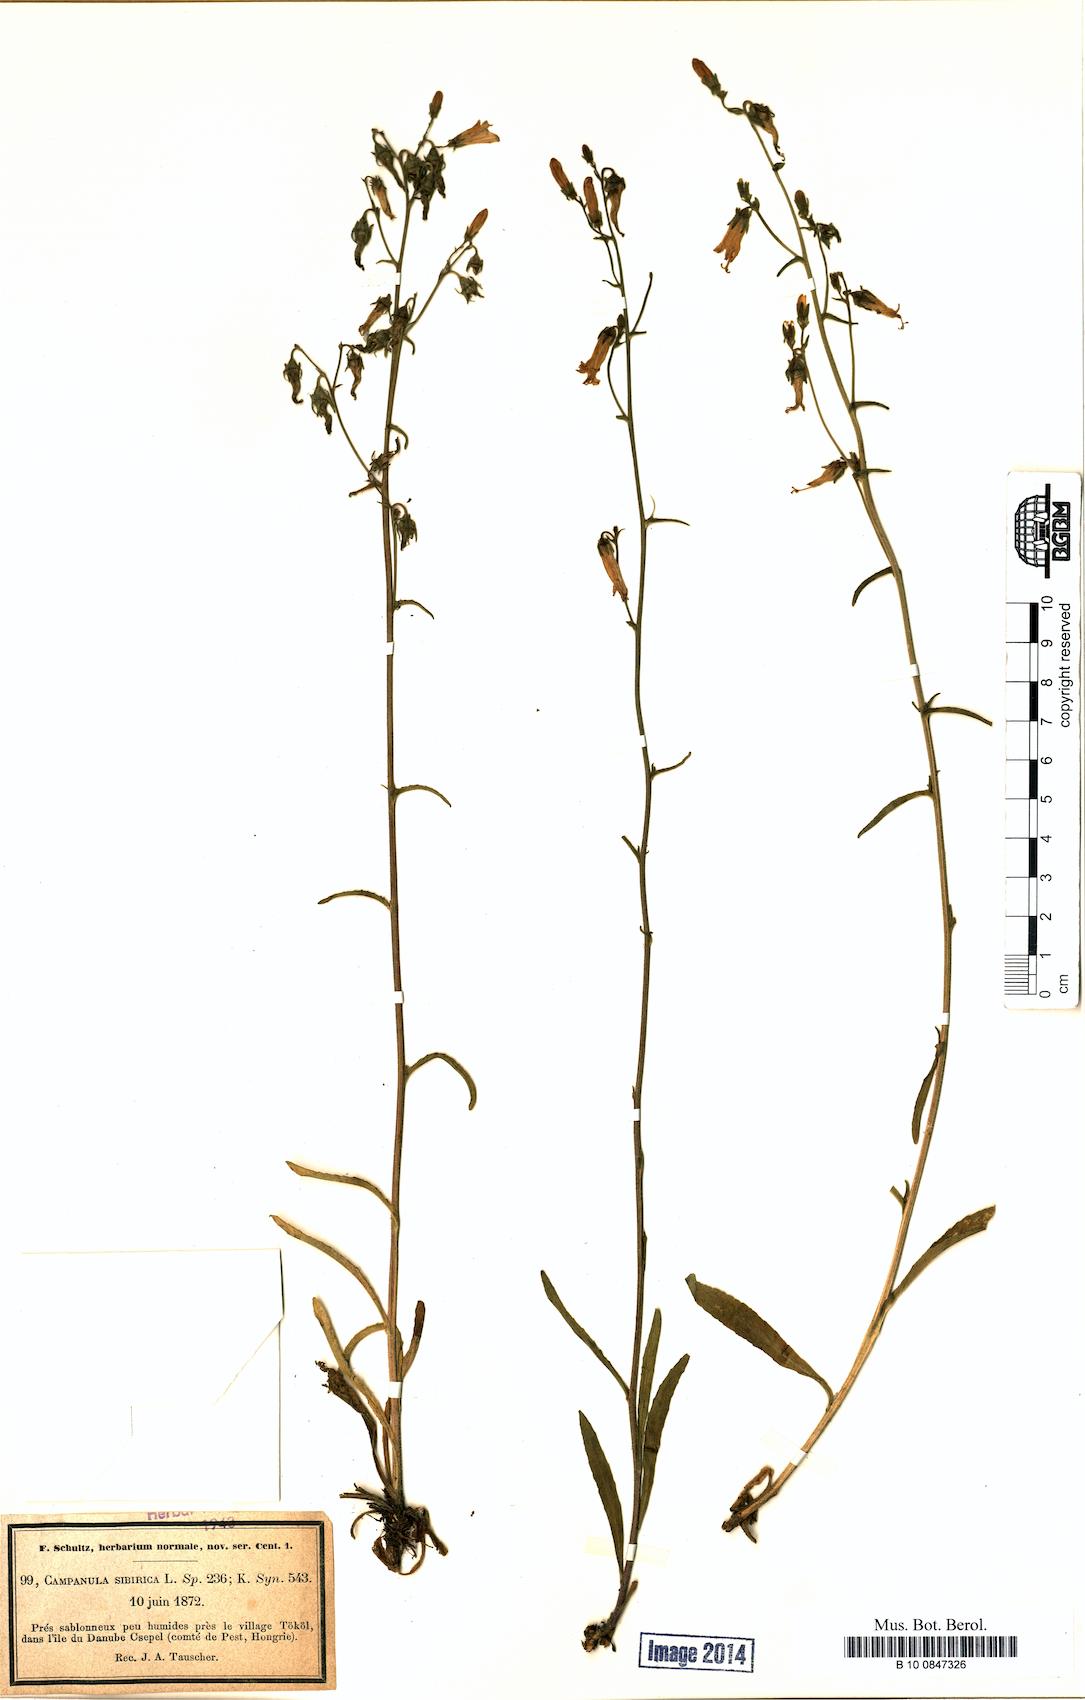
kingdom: Plantae
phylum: Tracheophyta
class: Magnoliopsida
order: Asterales
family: Campanulaceae
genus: Campanula
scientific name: Campanula sibirica
